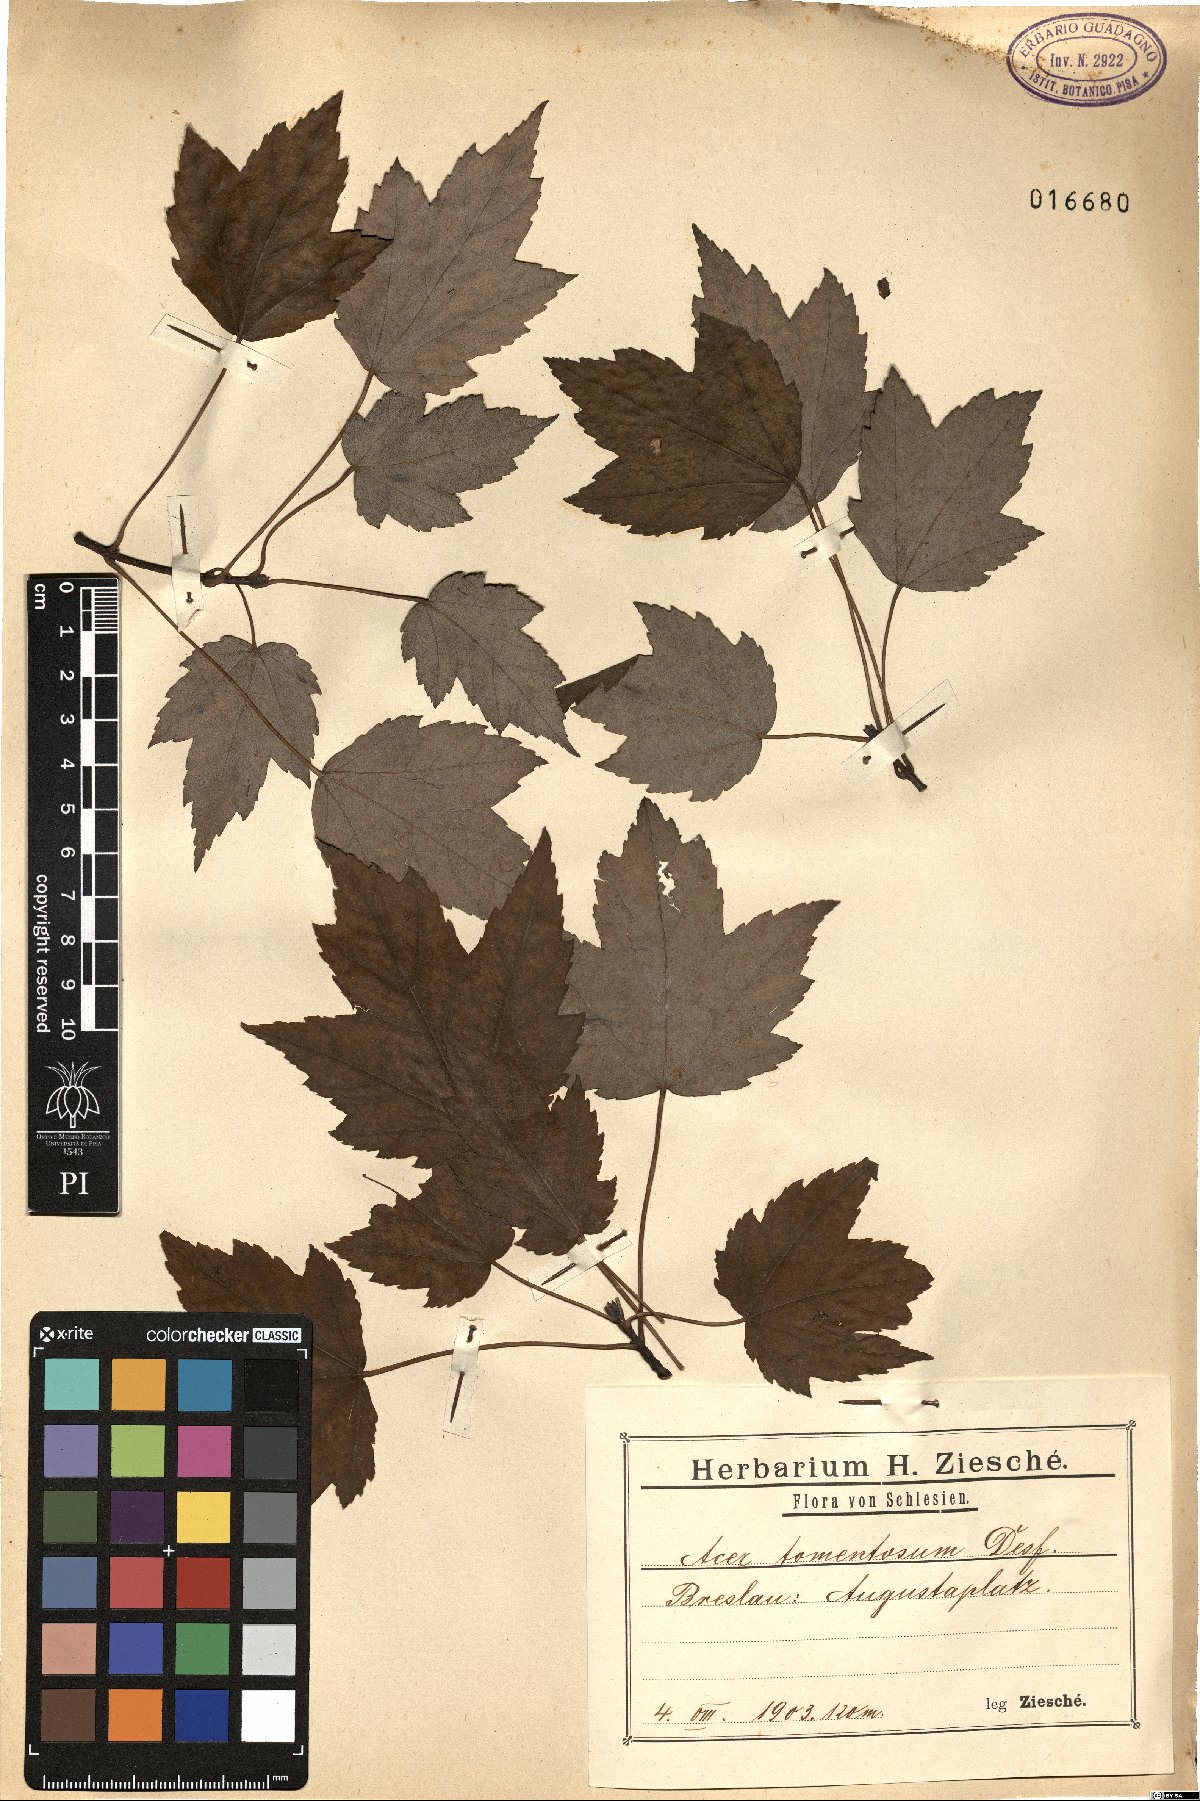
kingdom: Plantae
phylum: Tracheophyta
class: Magnoliopsida
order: Sapindales
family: Sapindaceae
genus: Acer
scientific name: Acer erianthum
